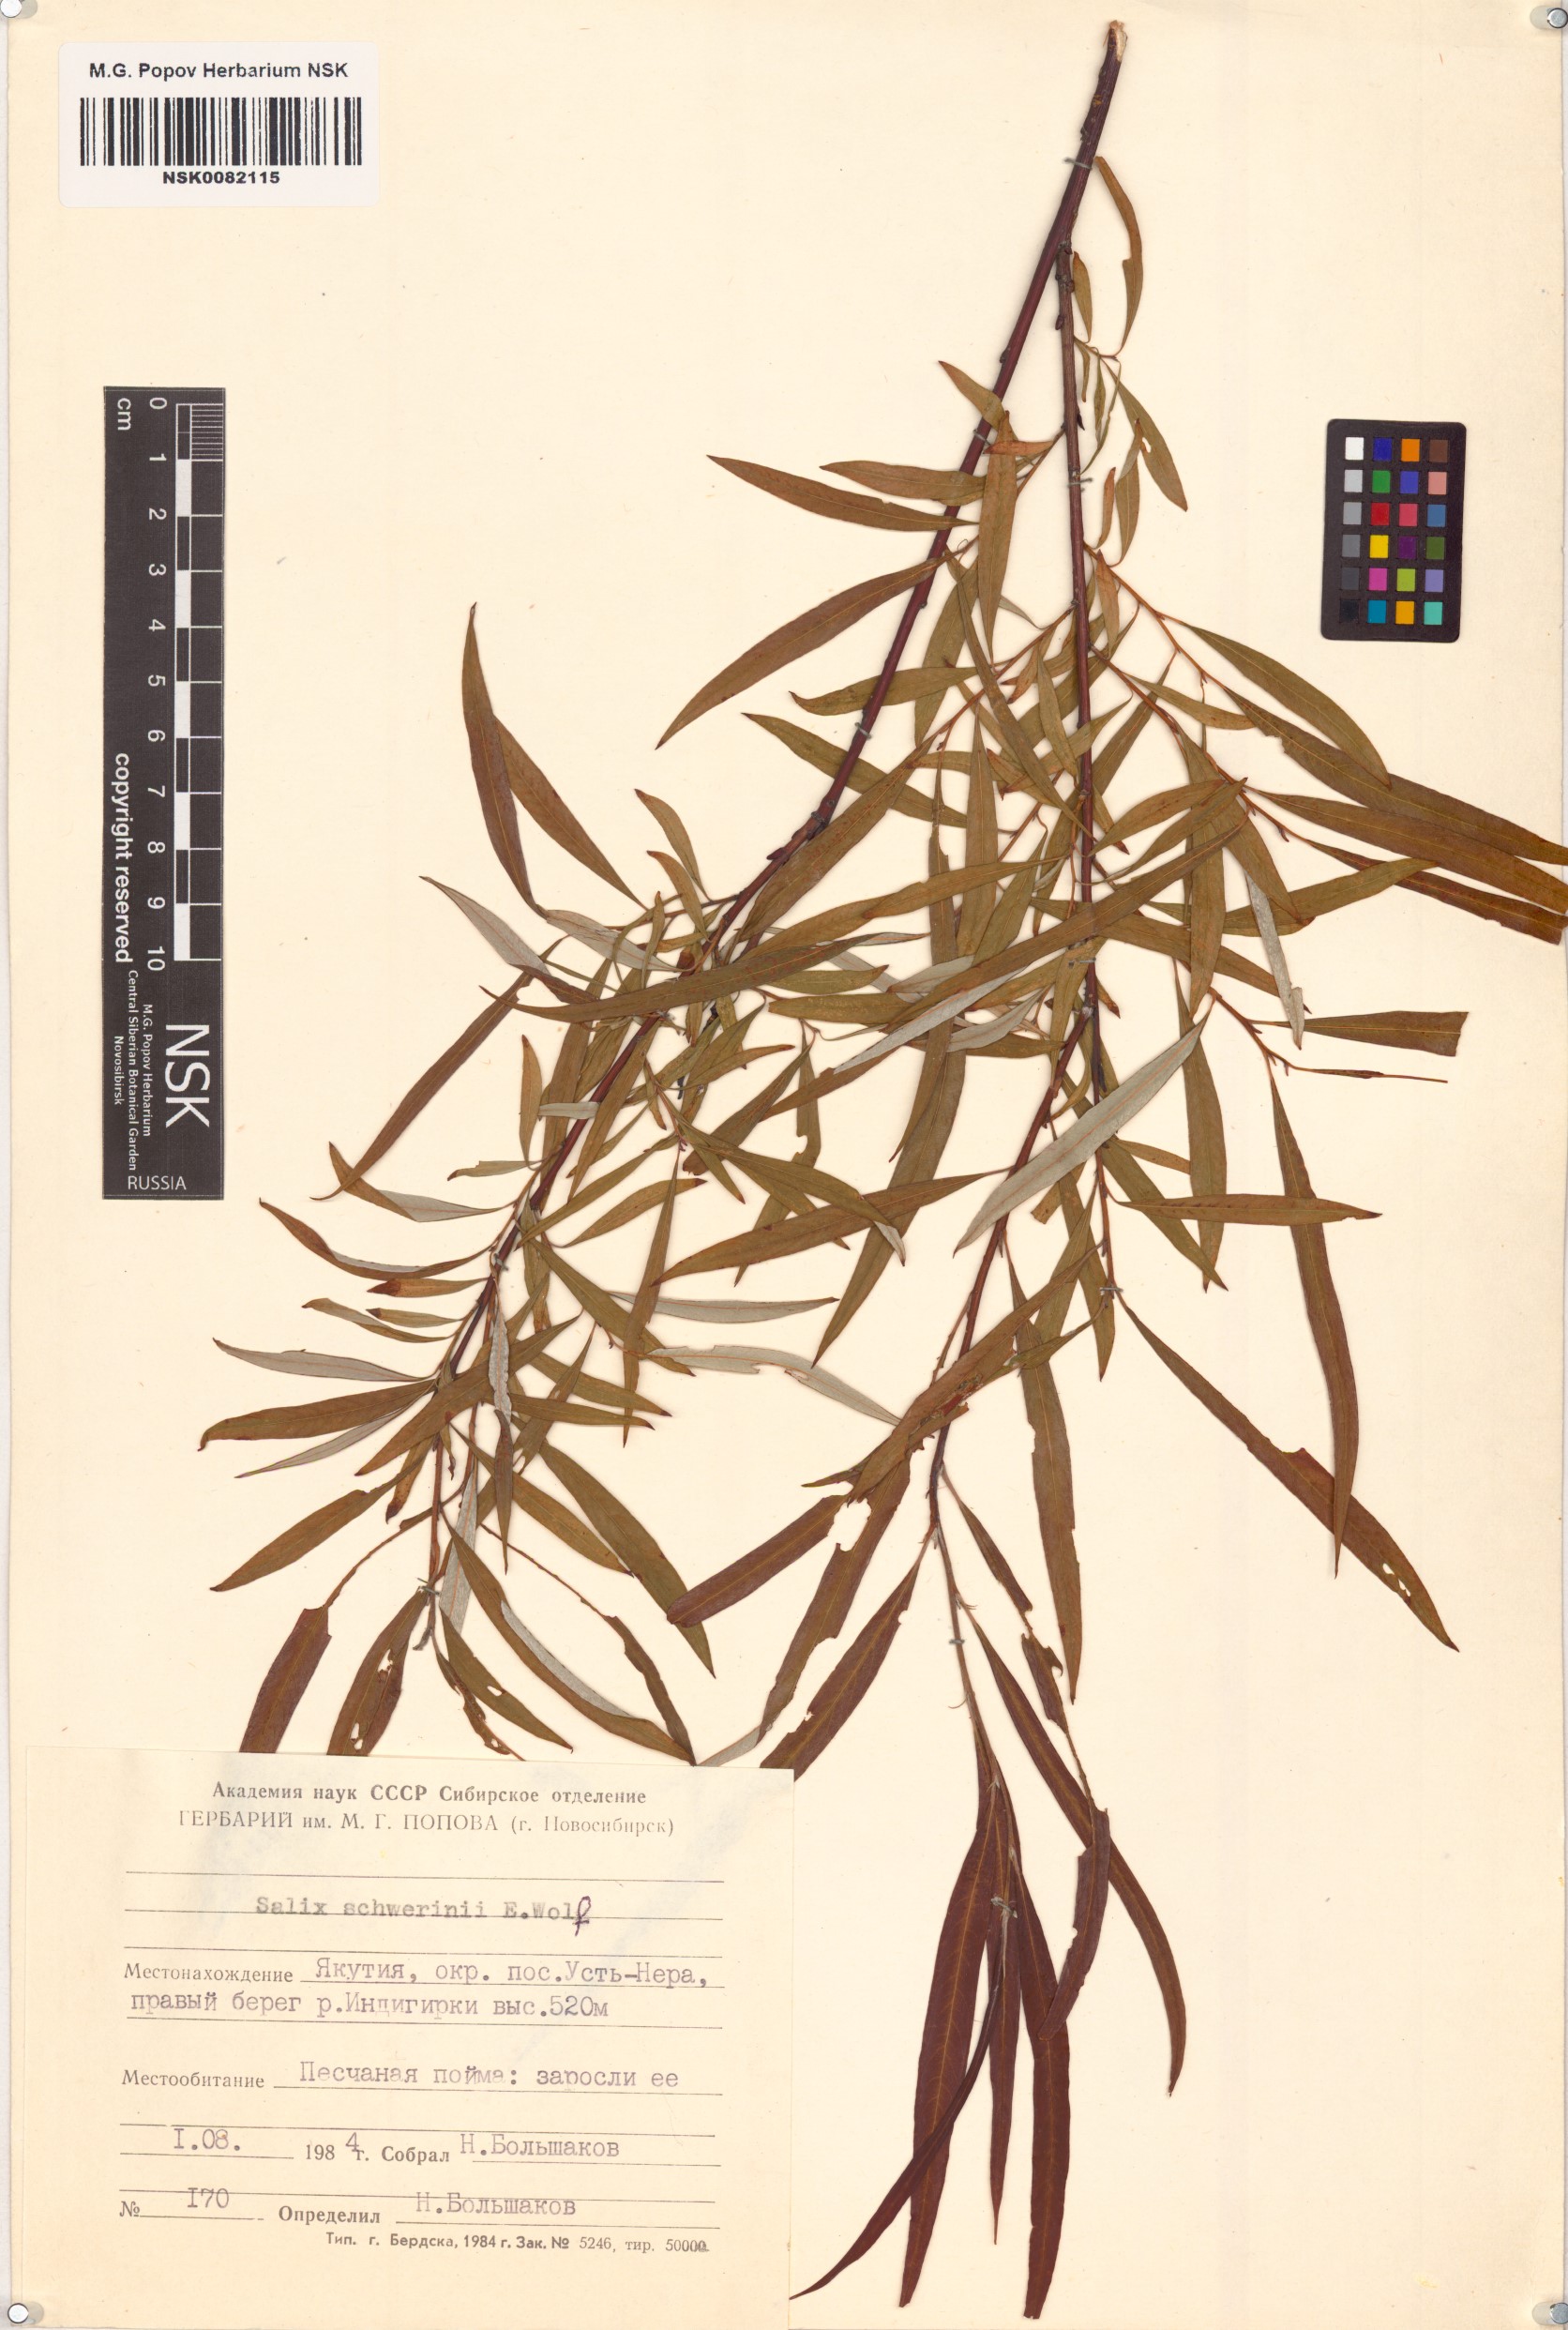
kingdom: Plantae
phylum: Tracheophyta
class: Magnoliopsida
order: Malpighiales
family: Salicaceae
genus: Salix
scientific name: Salix schwerinii
